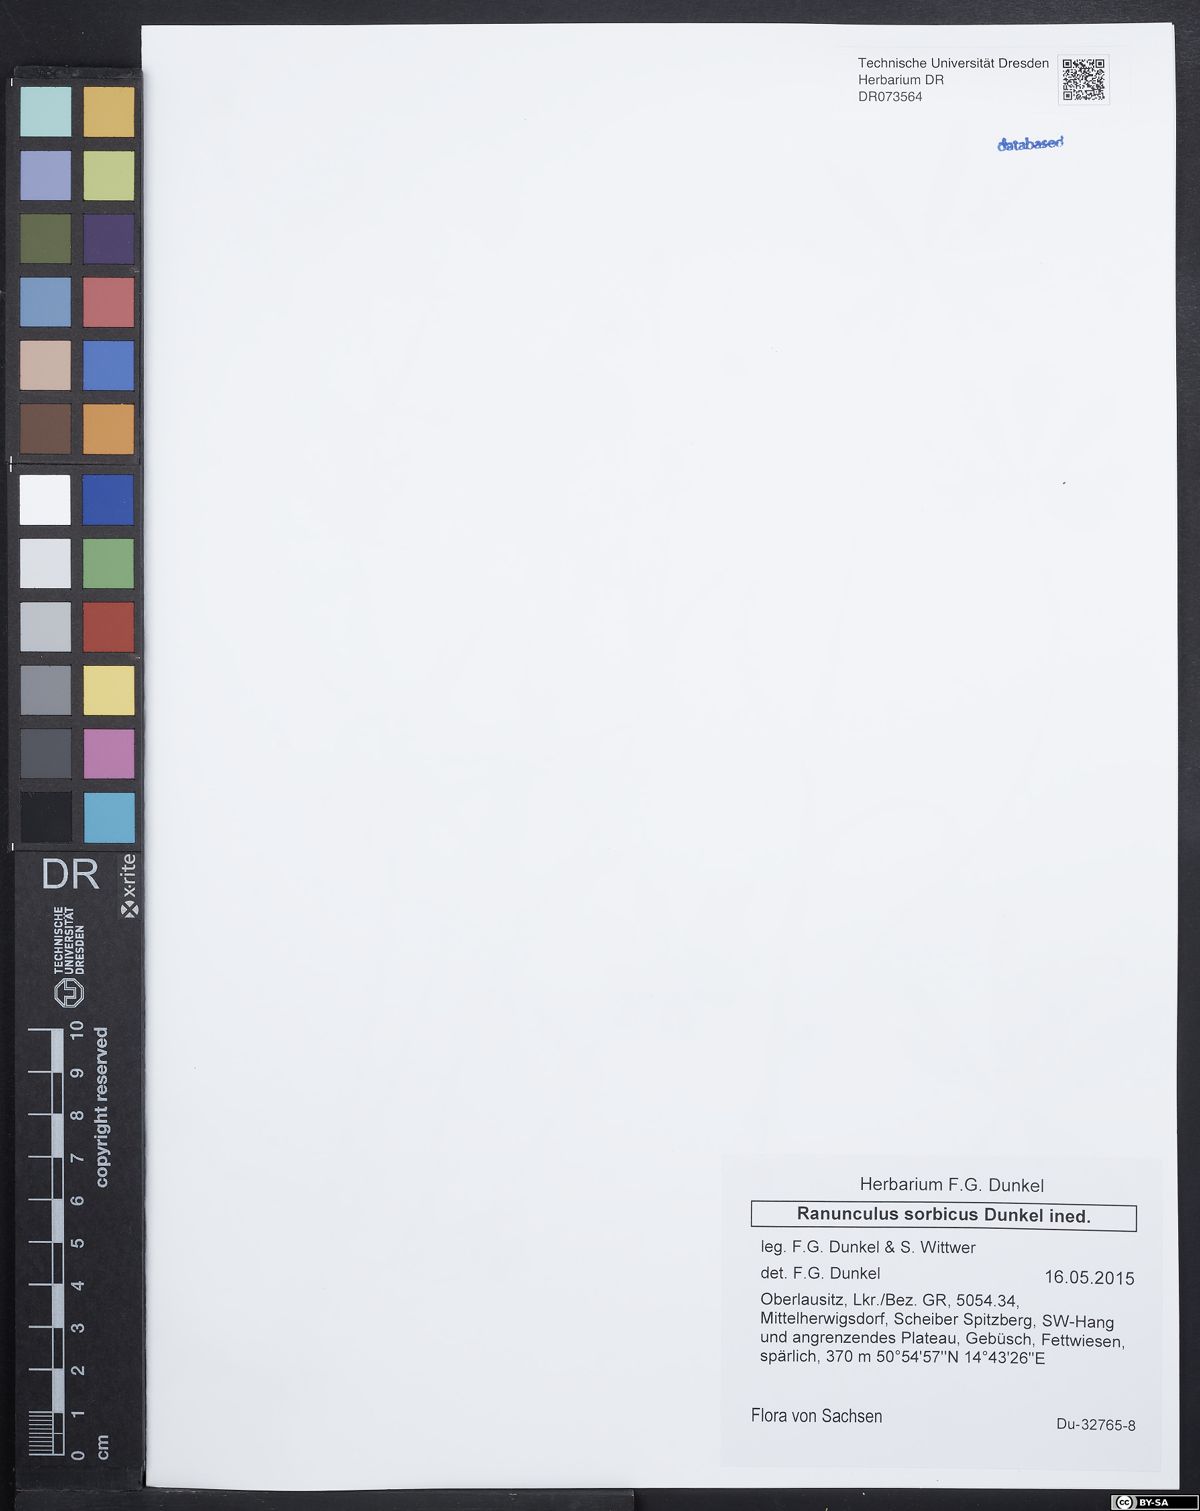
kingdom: Plantae
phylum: Tracheophyta
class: Magnoliopsida
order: Ranunculales
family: Ranunculaceae
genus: Ranunculus
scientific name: Ranunculus sorbicus
